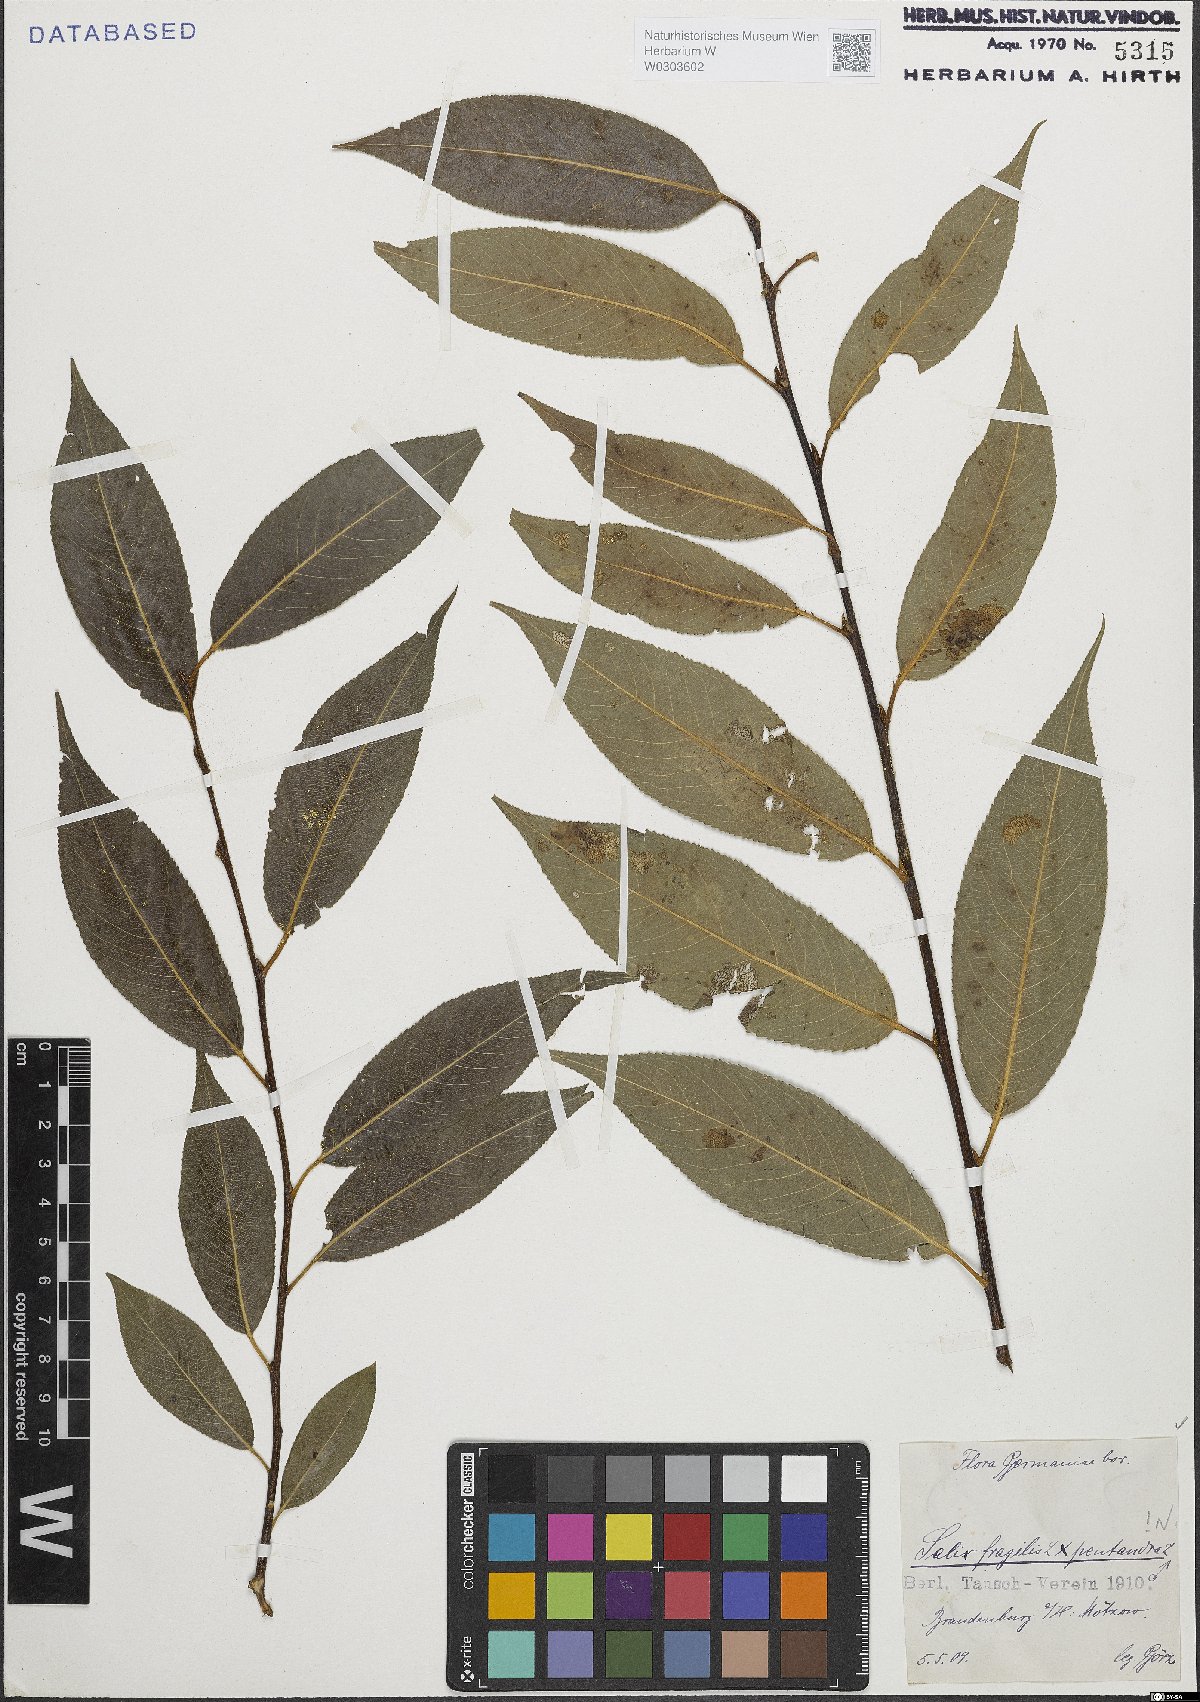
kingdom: Plantae
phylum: Tracheophyta
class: Magnoliopsida
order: Malpighiales
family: Salicaceae
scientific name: Salicaceae
